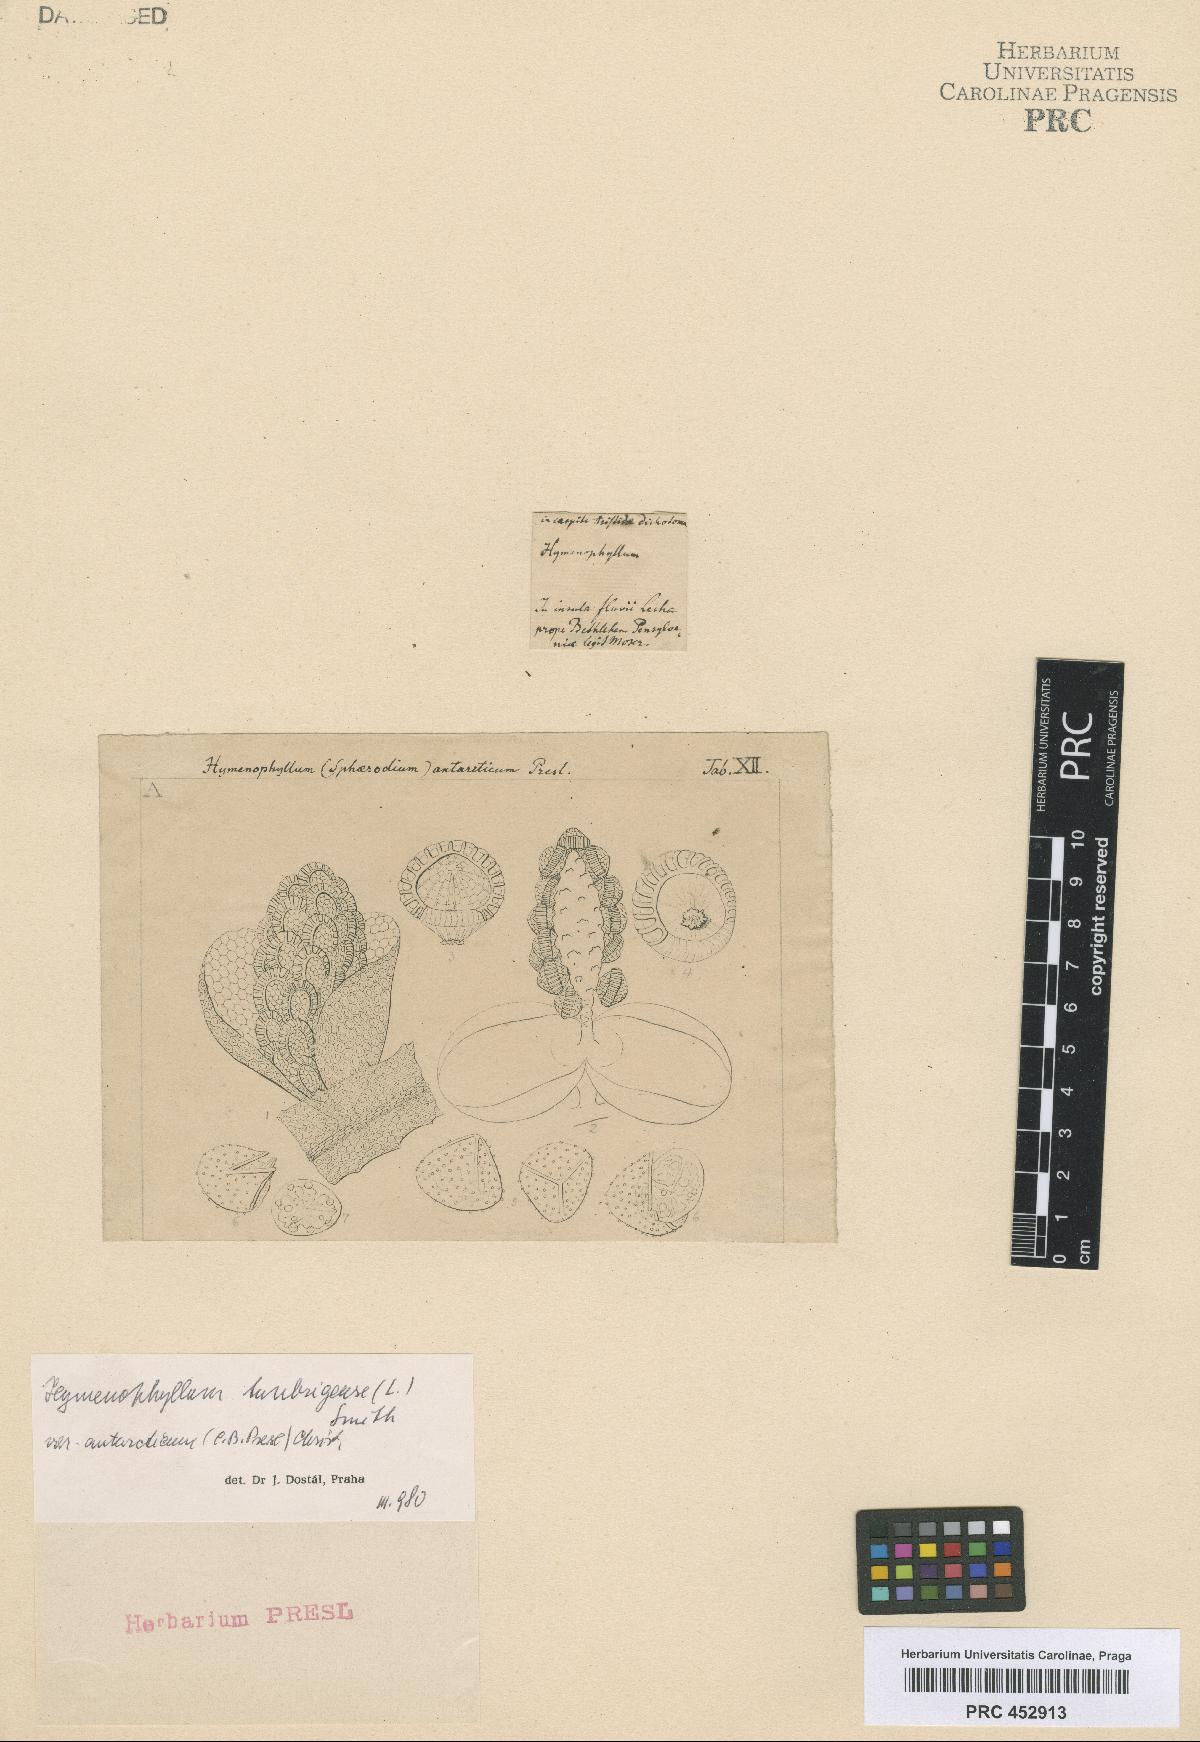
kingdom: Plantae
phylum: Tracheophyta
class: Polypodiopsida
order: Hymenophyllales
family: Hymenophyllaceae
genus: Hymenophyllum
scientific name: Hymenophyllum cupressiforme
